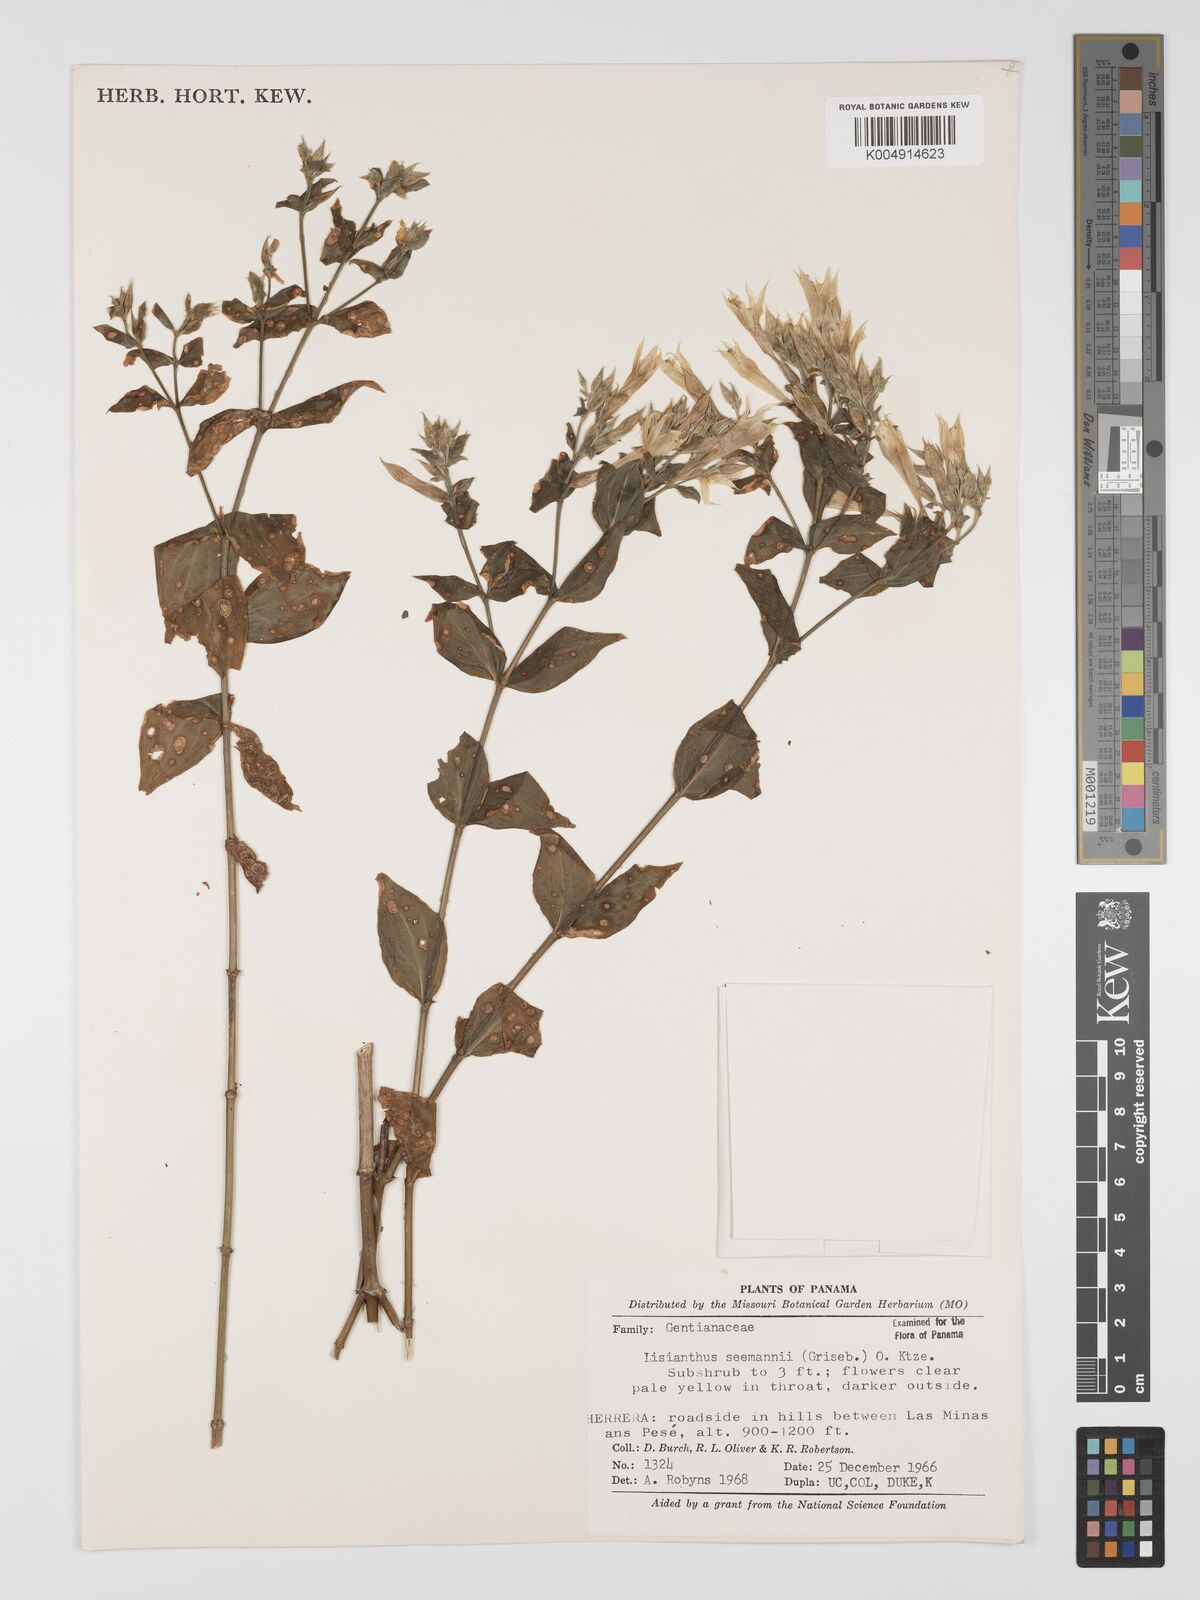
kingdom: Plantae
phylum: Tracheophyta
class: Magnoliopsida
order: Gentianales
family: Gentianaceae
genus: Lisianthus
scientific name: Lisianthus seemannii
